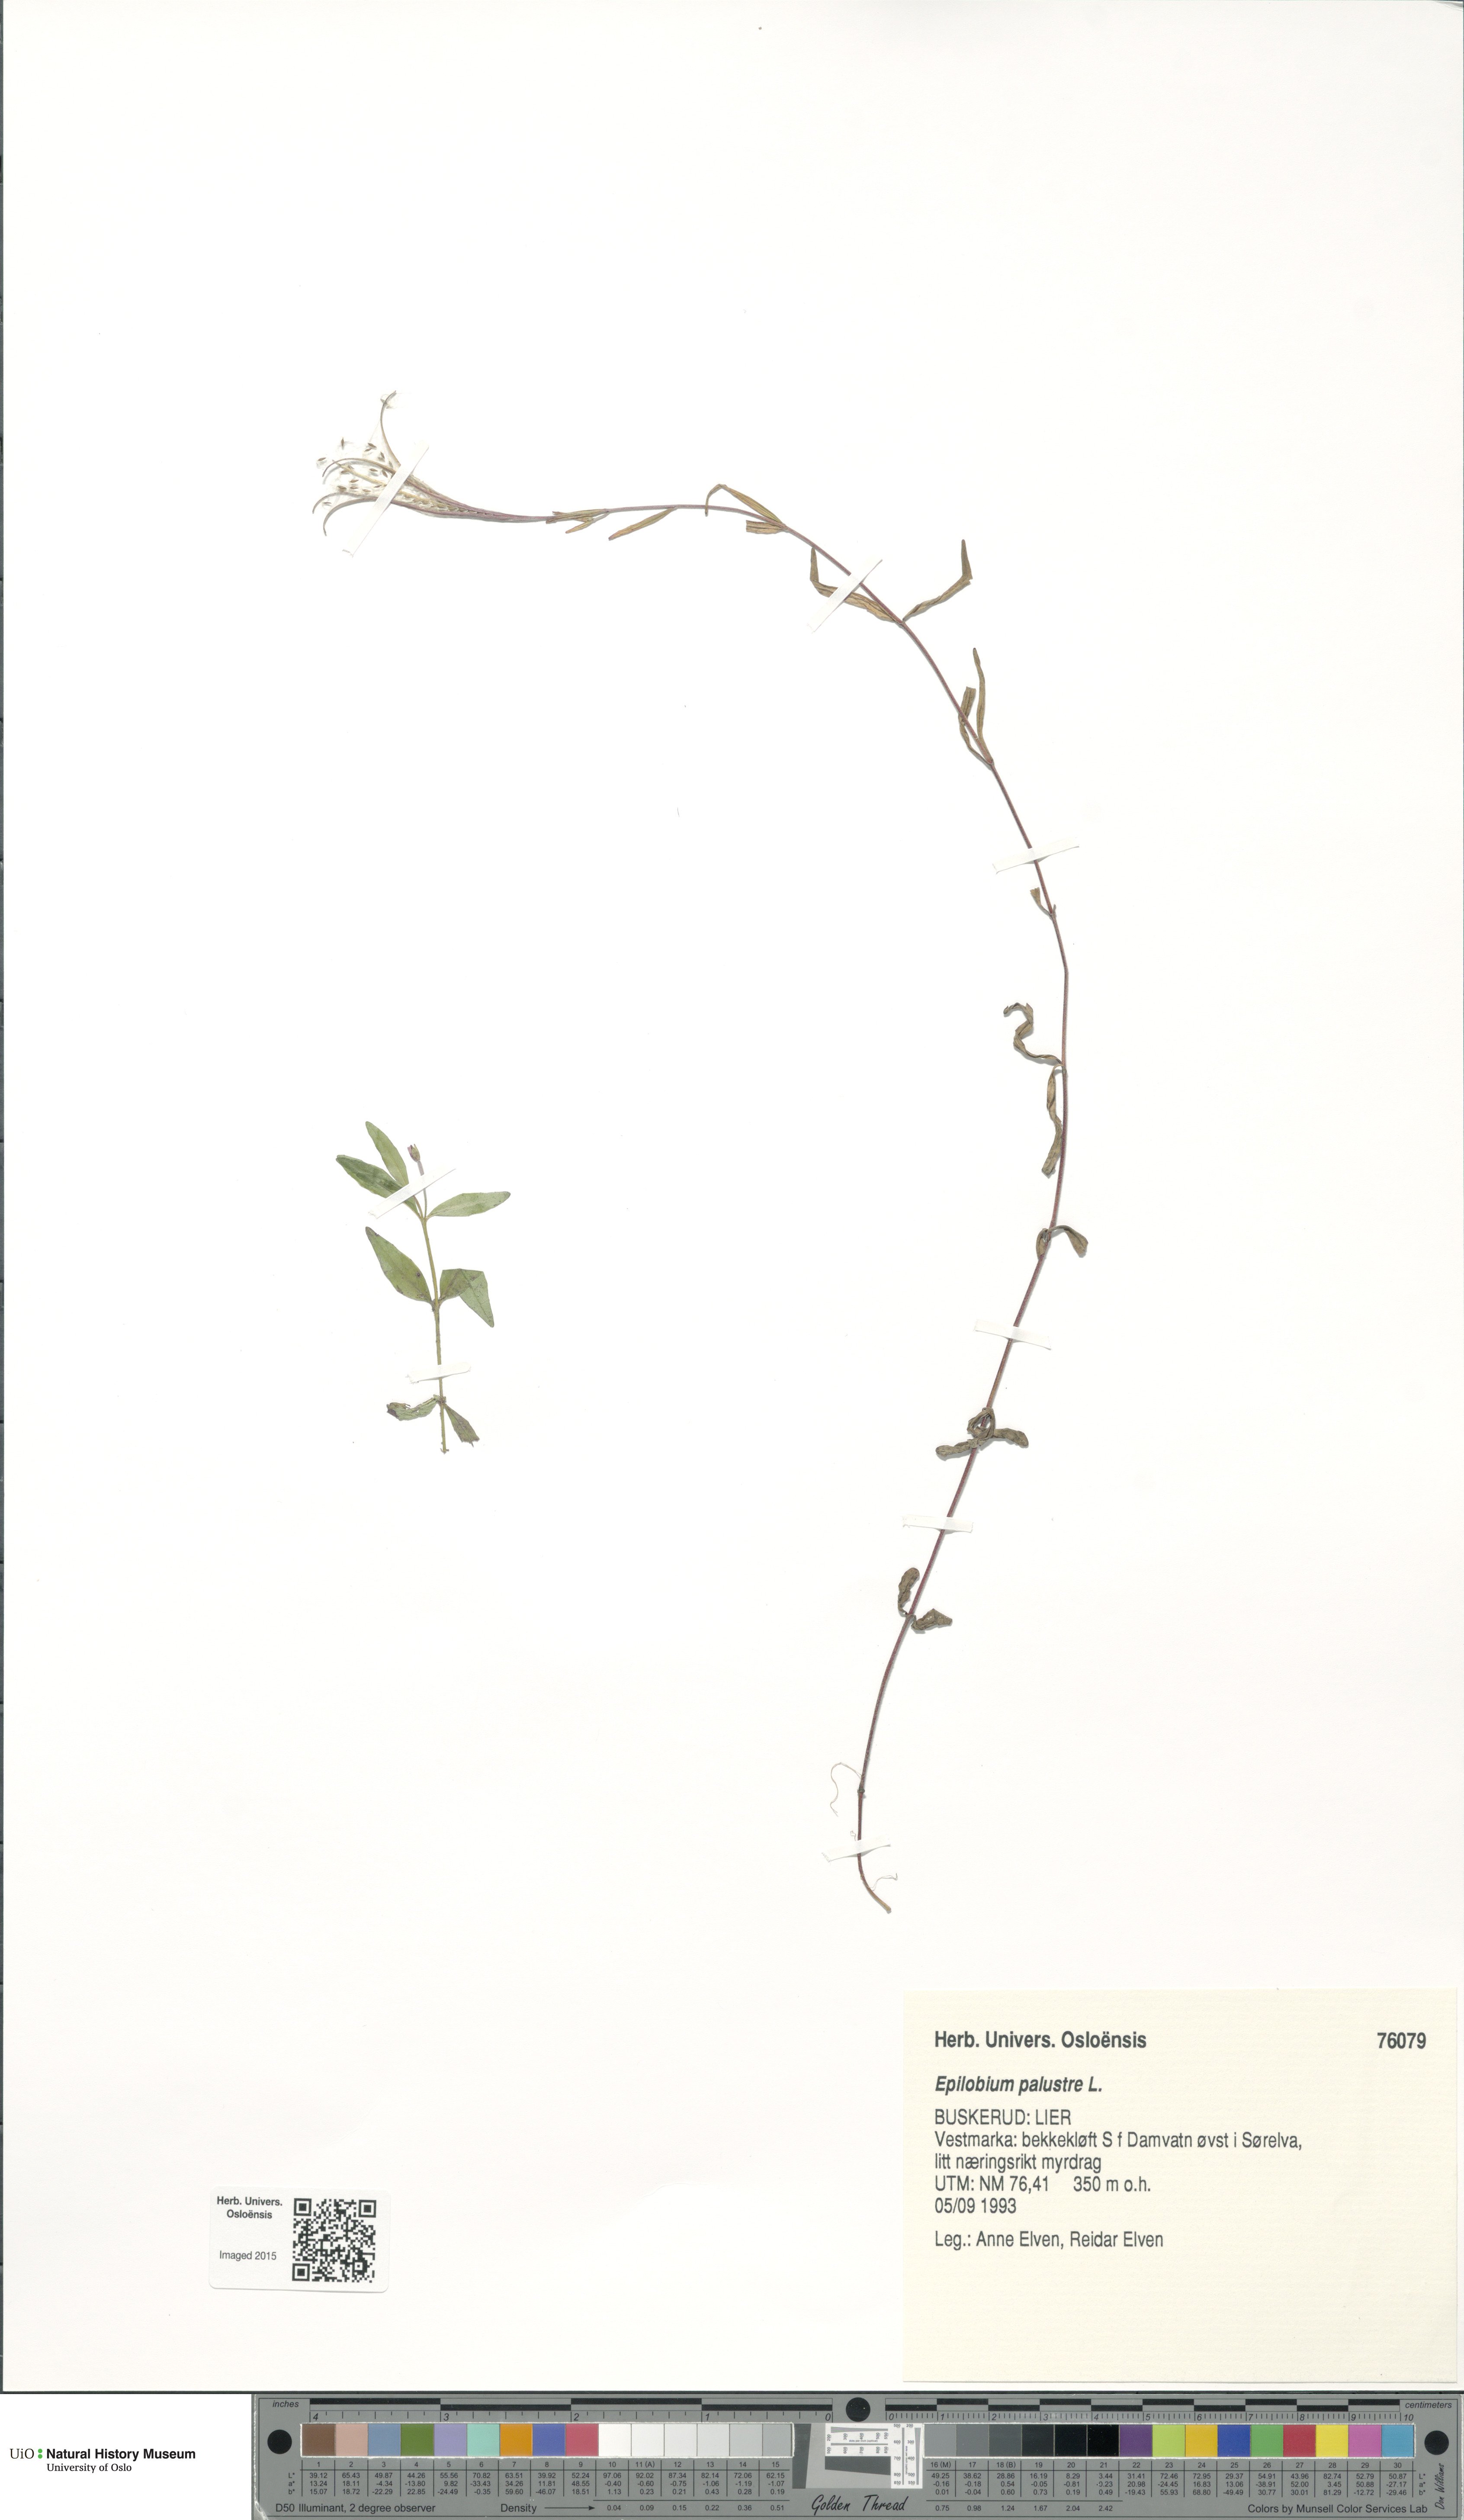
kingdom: Plantae
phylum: Tracheophyta
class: Magnoliopsida
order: Myrtales
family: Onagraceae
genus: Epilobium
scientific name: Epilobium palustre
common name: Marsh willowherb
